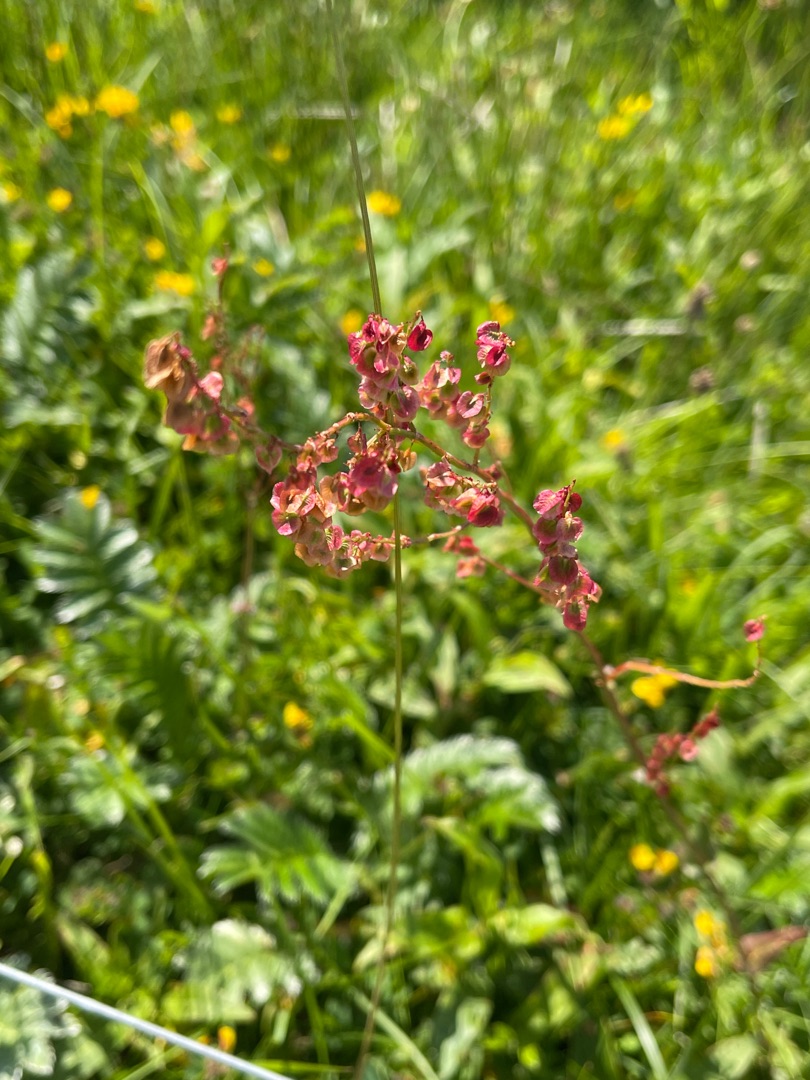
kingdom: Plantae
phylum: Tracheophyta
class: Magnoliopsida
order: Caryophyllales
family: Polygonaceae
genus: Rumex
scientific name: Rumex acetosa
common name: Almindelig syre
